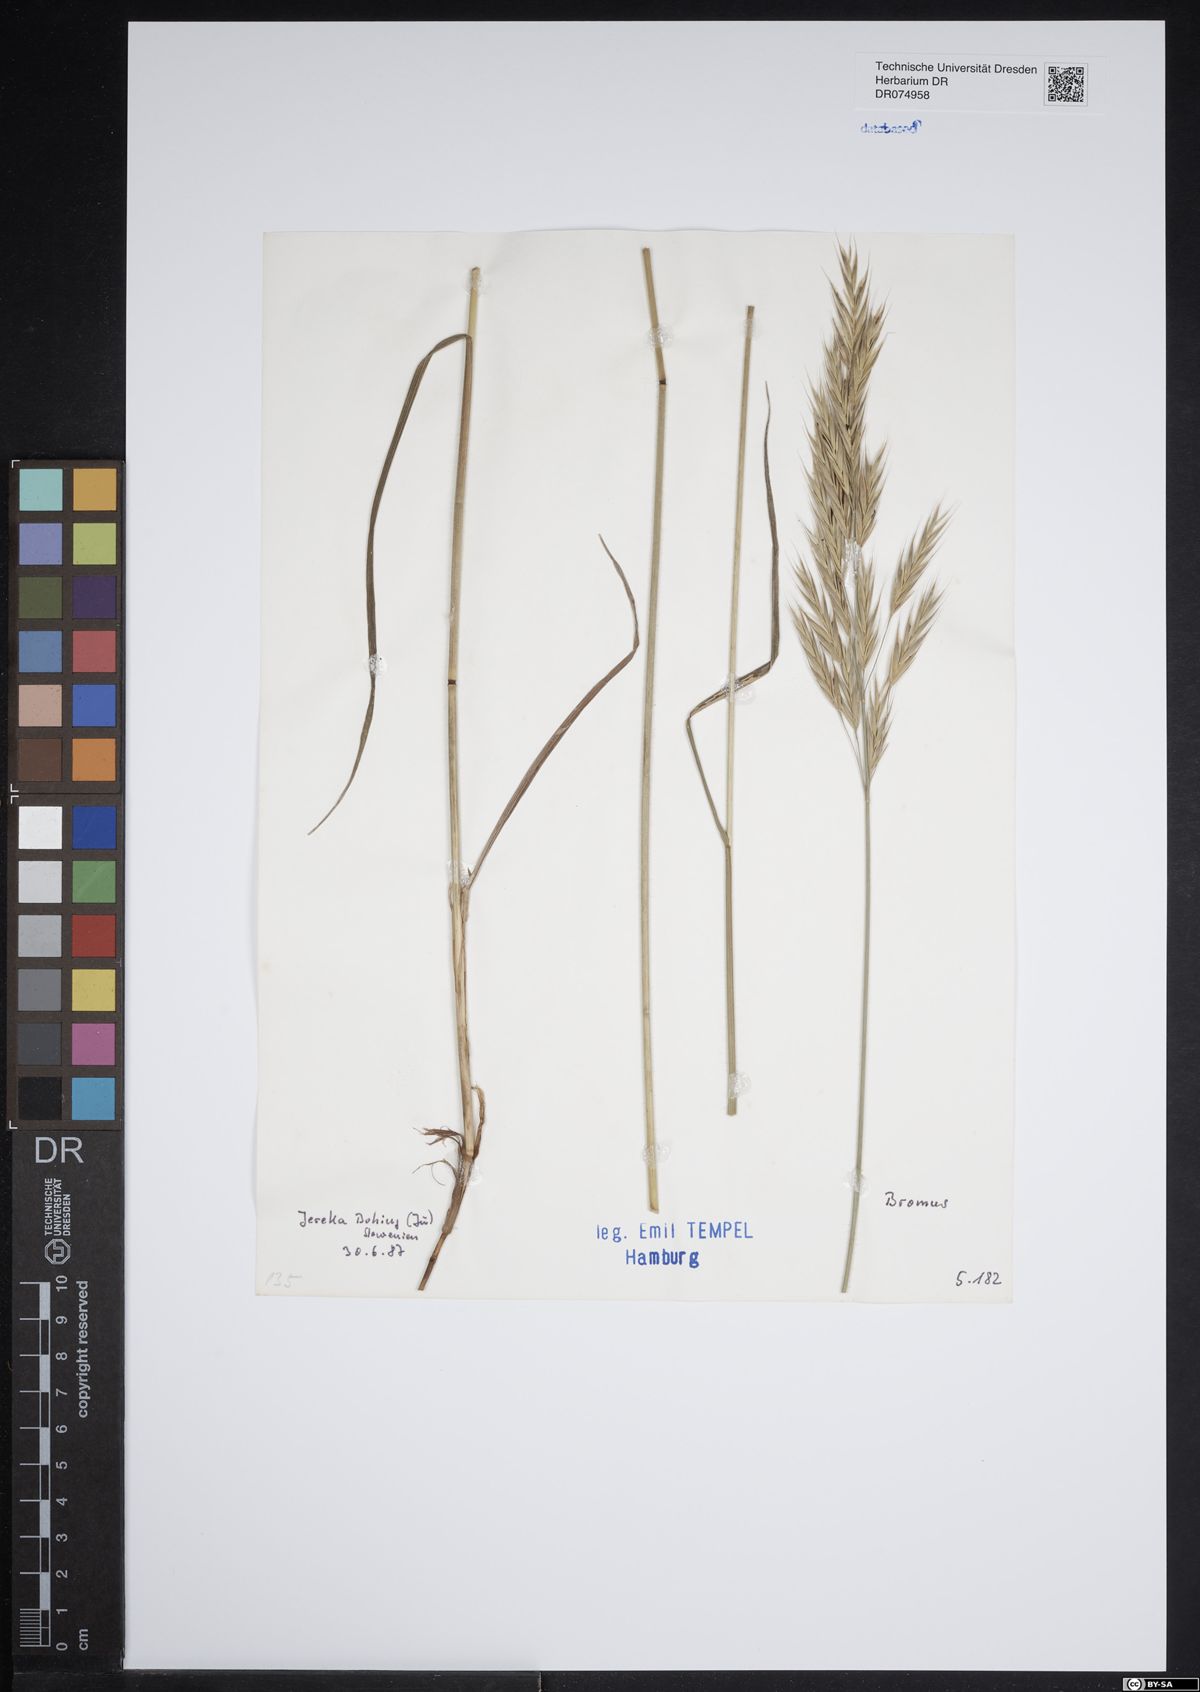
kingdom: Plantae
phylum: Tracheophyta
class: Liliopsida
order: Poales
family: Poaceae
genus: Bromus
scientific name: Bromus
